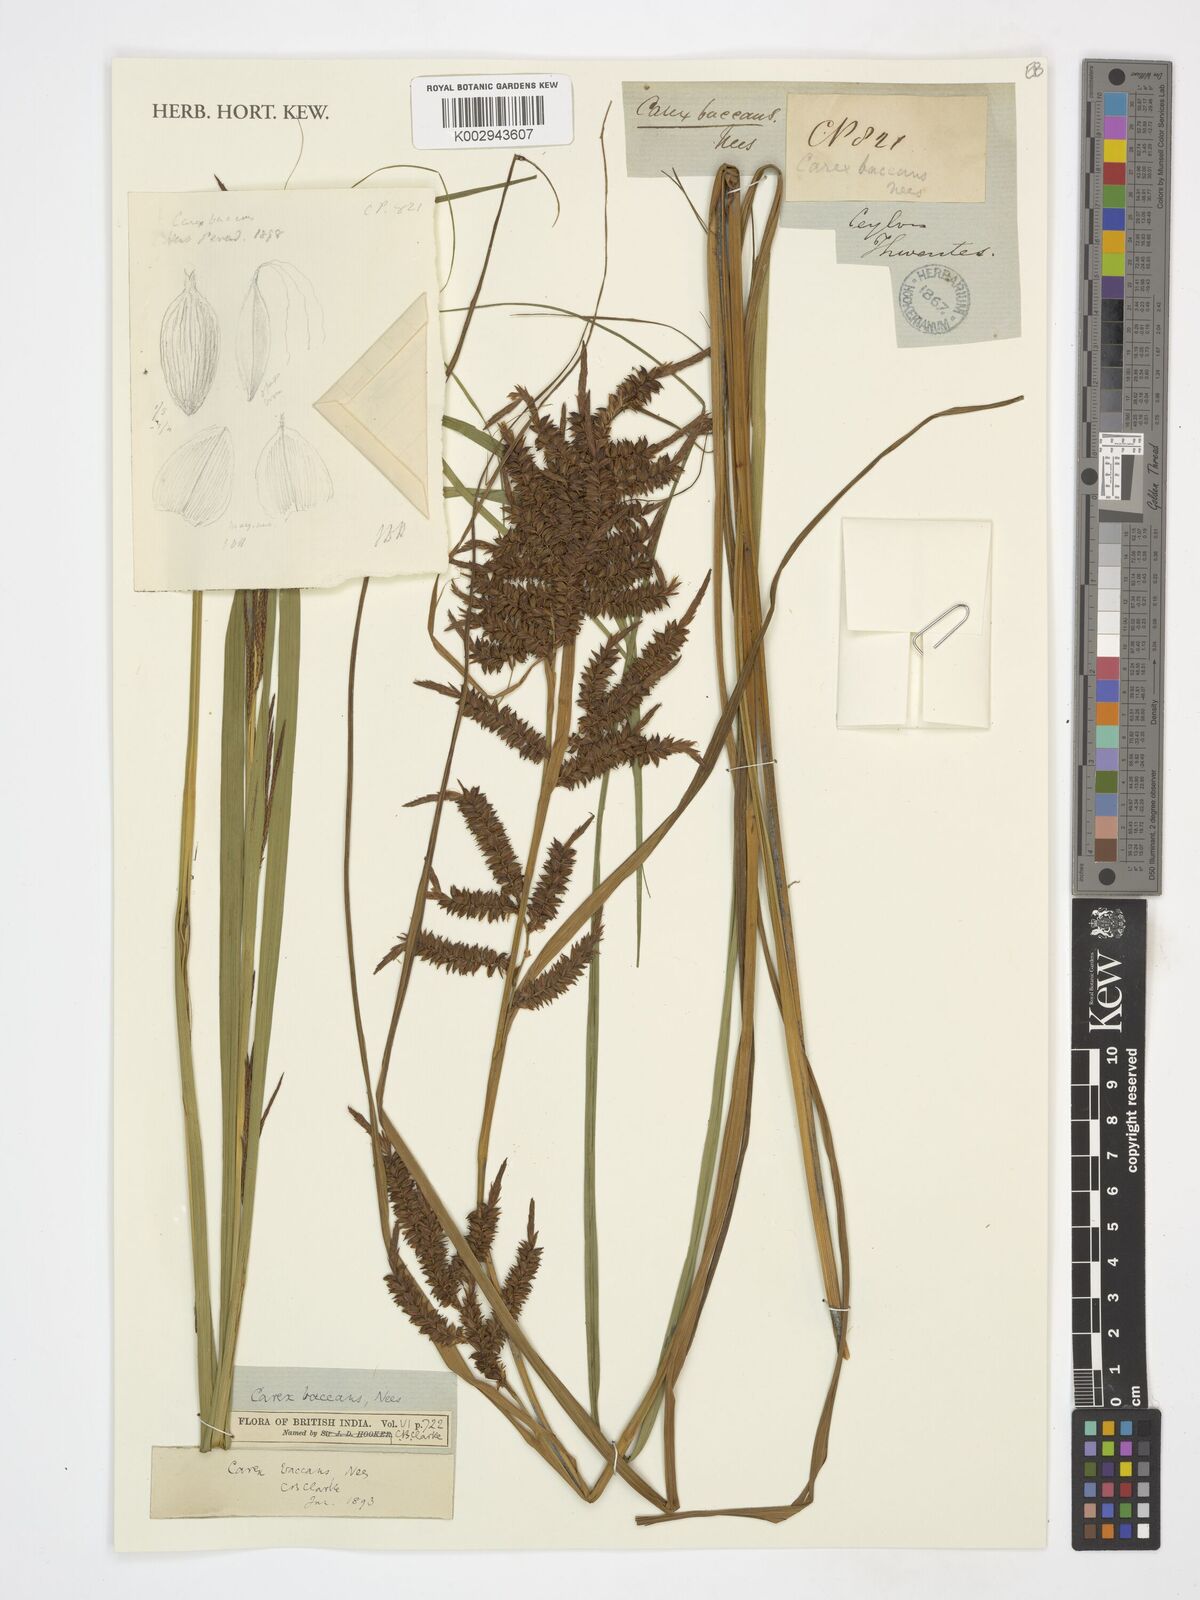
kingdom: Plantae
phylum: Tracheophyta
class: Liliopsida
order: Poales
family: Cyperaceae
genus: Carex
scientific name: Carex baccans
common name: Crimson seeded sedge
